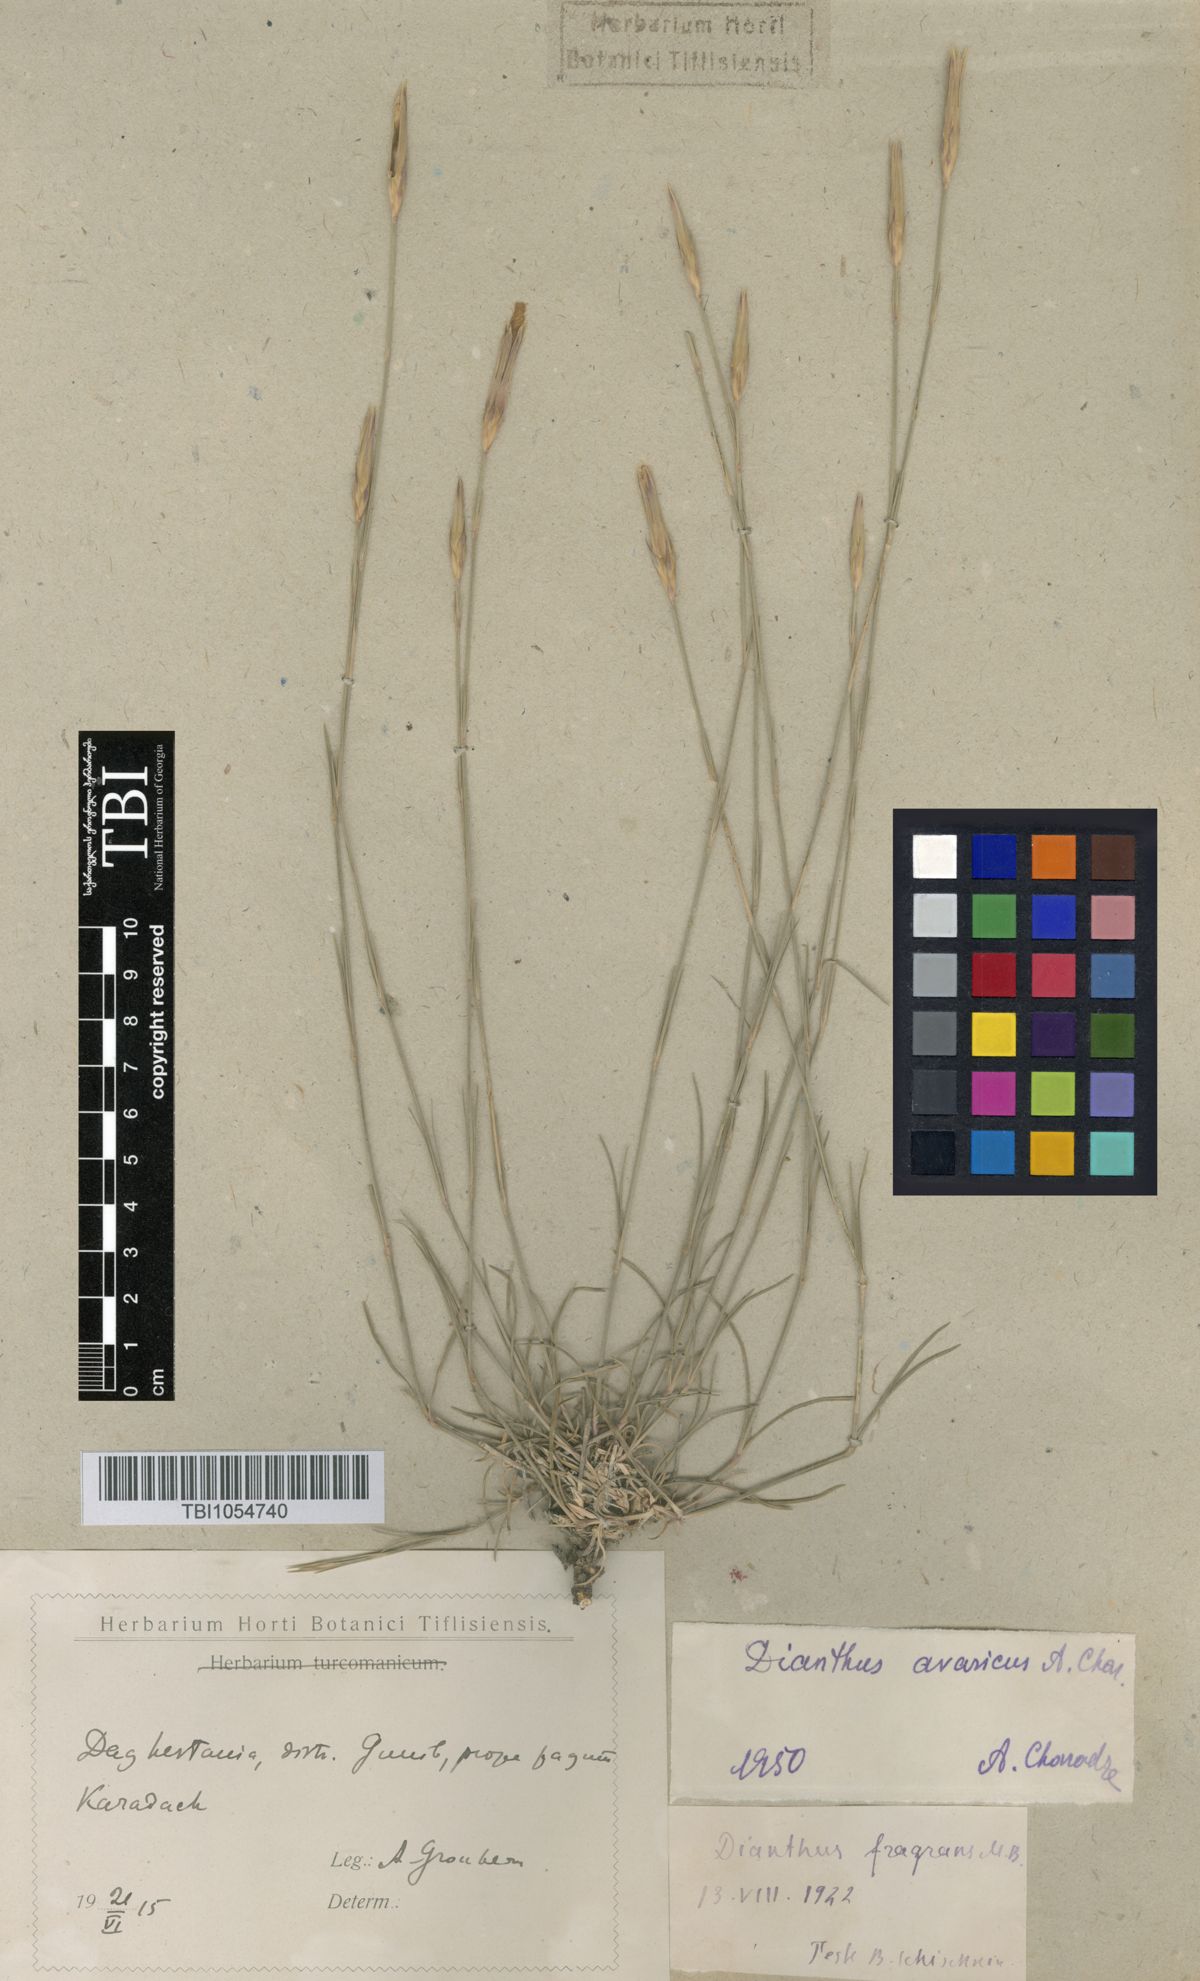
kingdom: Plantae
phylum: Tracheophyta
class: Magnoliopsida
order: Caryophyllales
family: Caryophyllaceae
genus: Dianthus
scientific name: Dianthus
